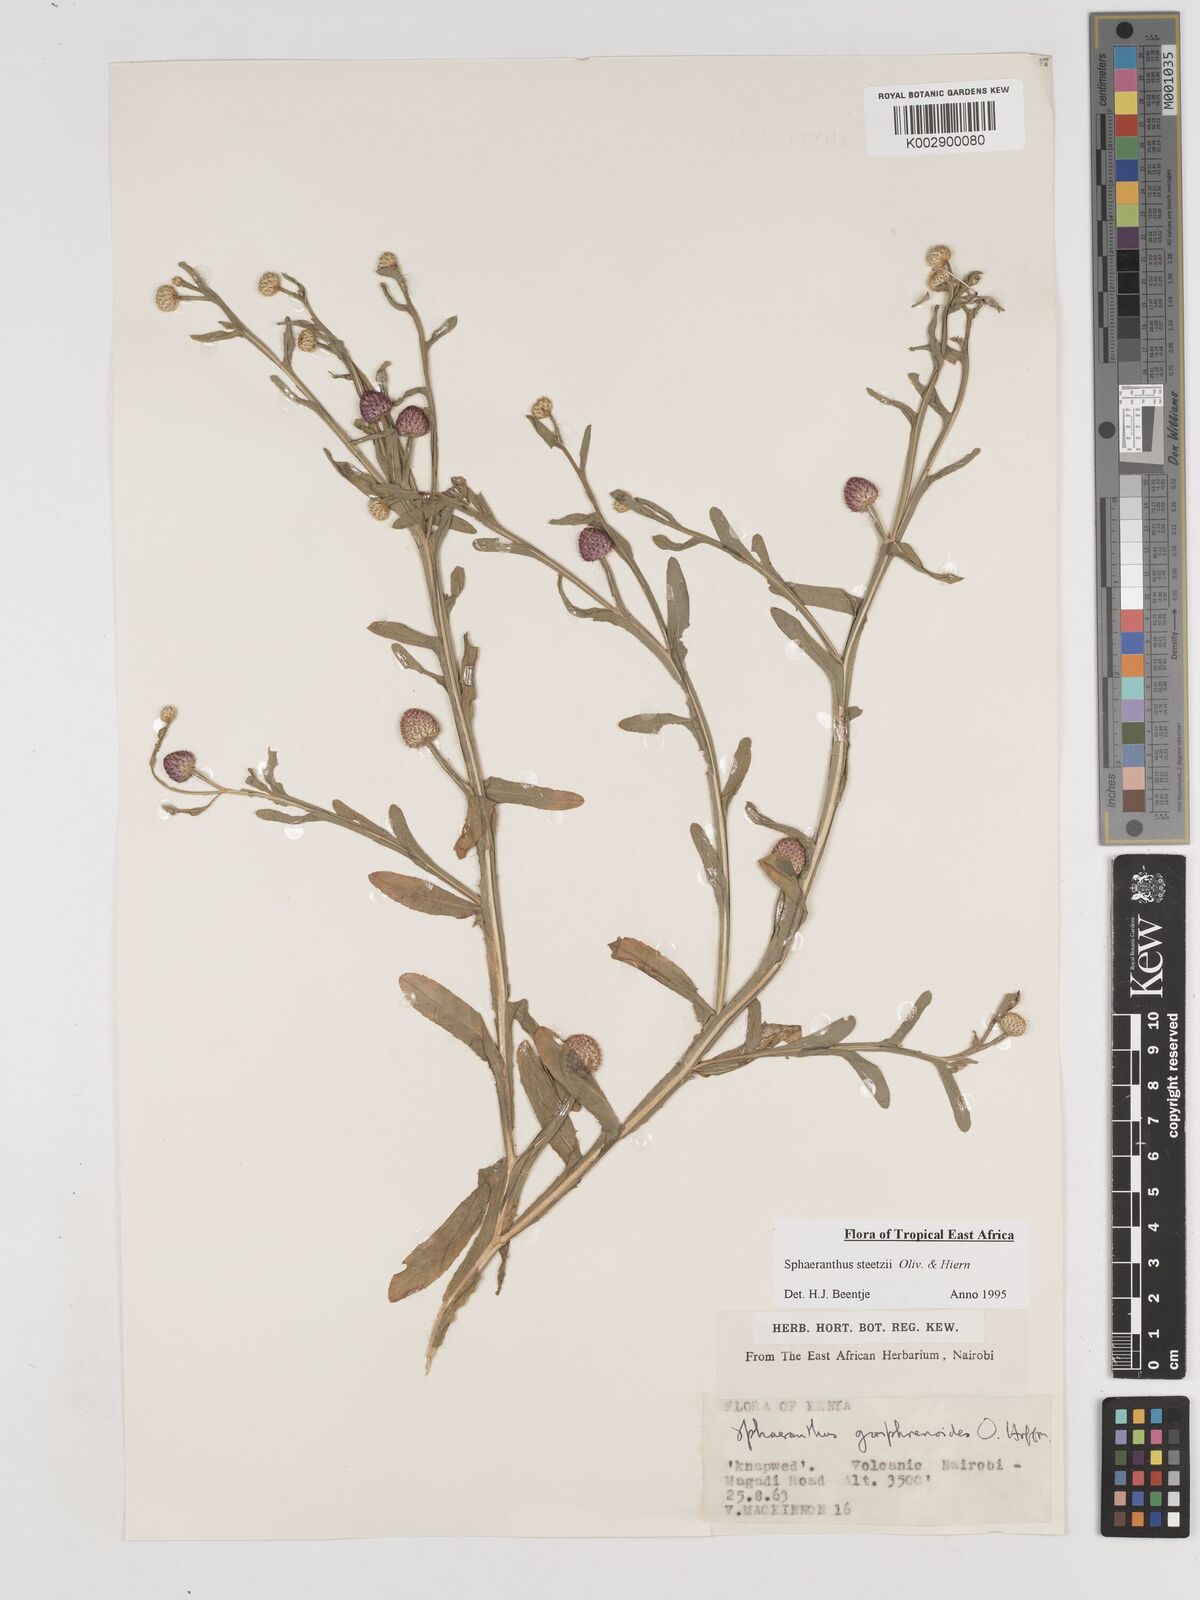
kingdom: Plantae
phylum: Tracheophyta
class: Magnoliopsida
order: Asterales
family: Asteraceae
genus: Sphaeranthus
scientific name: Sphaeranthus steetzii
